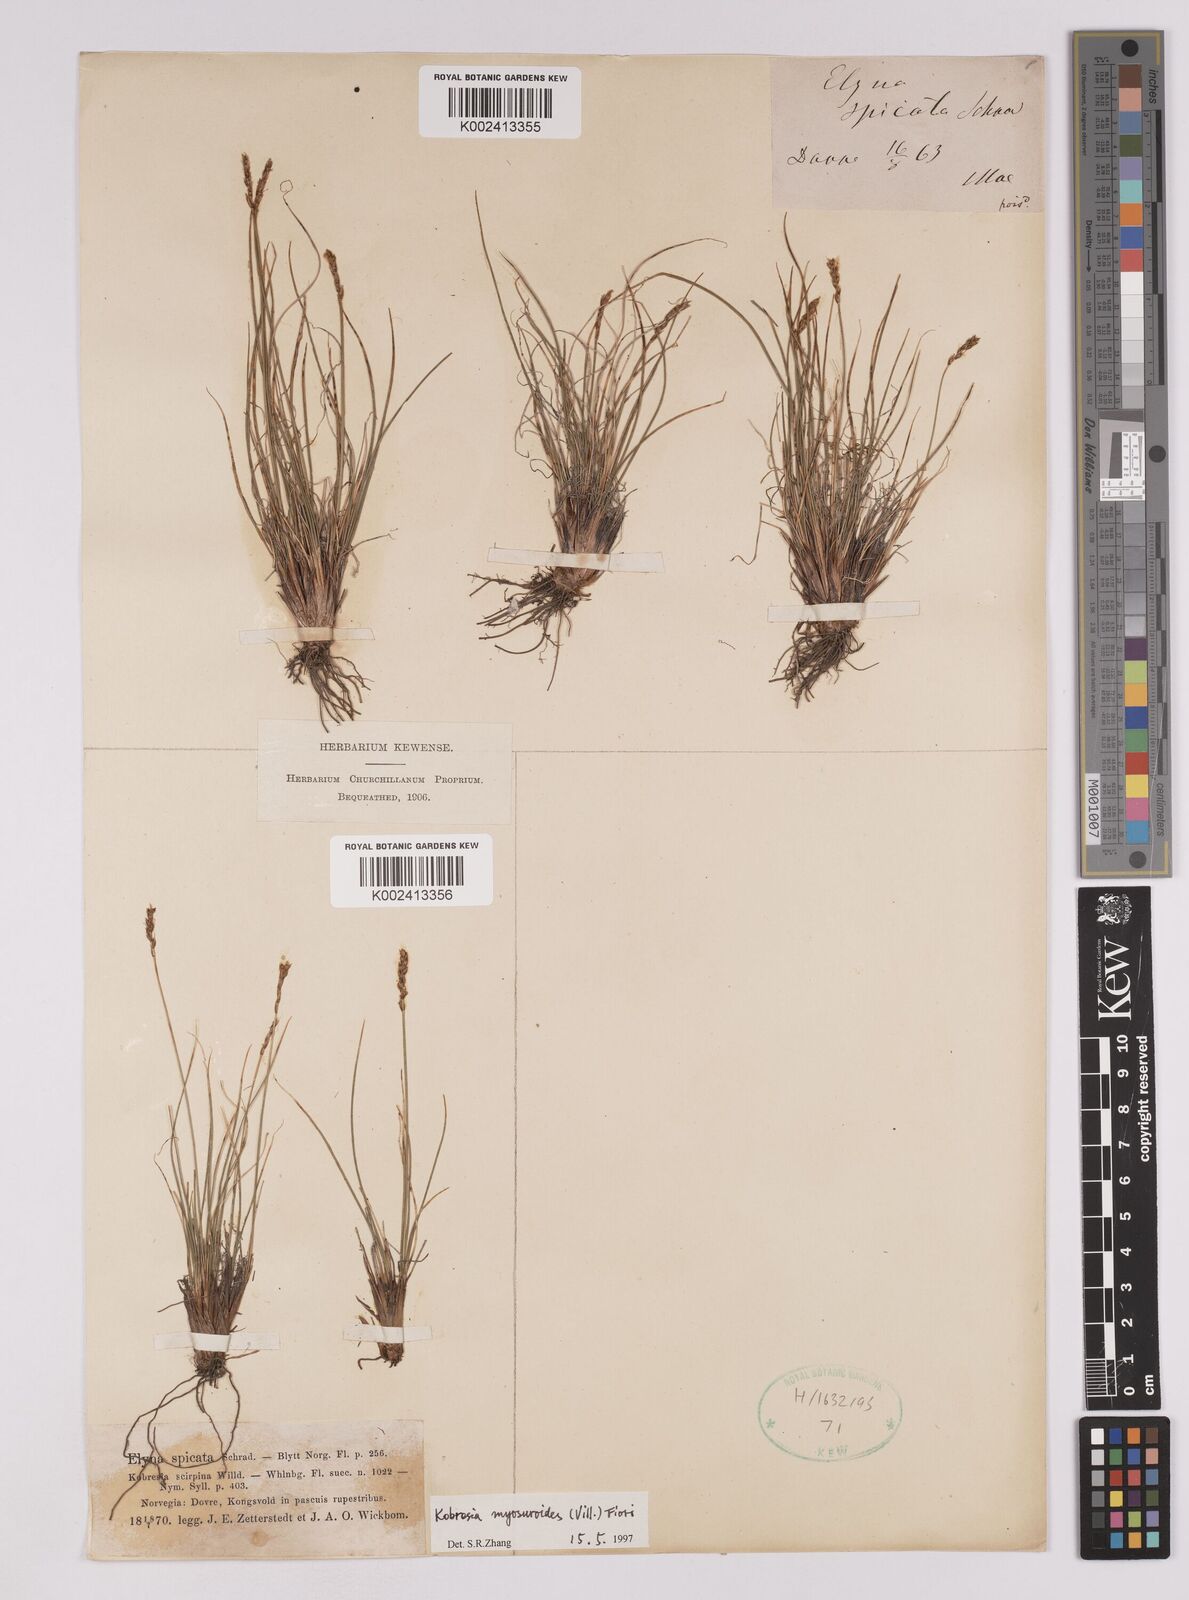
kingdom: Plantae
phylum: Tracheophyta
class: Liliopsida
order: Poales
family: Cyperaceae
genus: Carex
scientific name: Carex myosuroides
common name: Bellard's bog sedge
